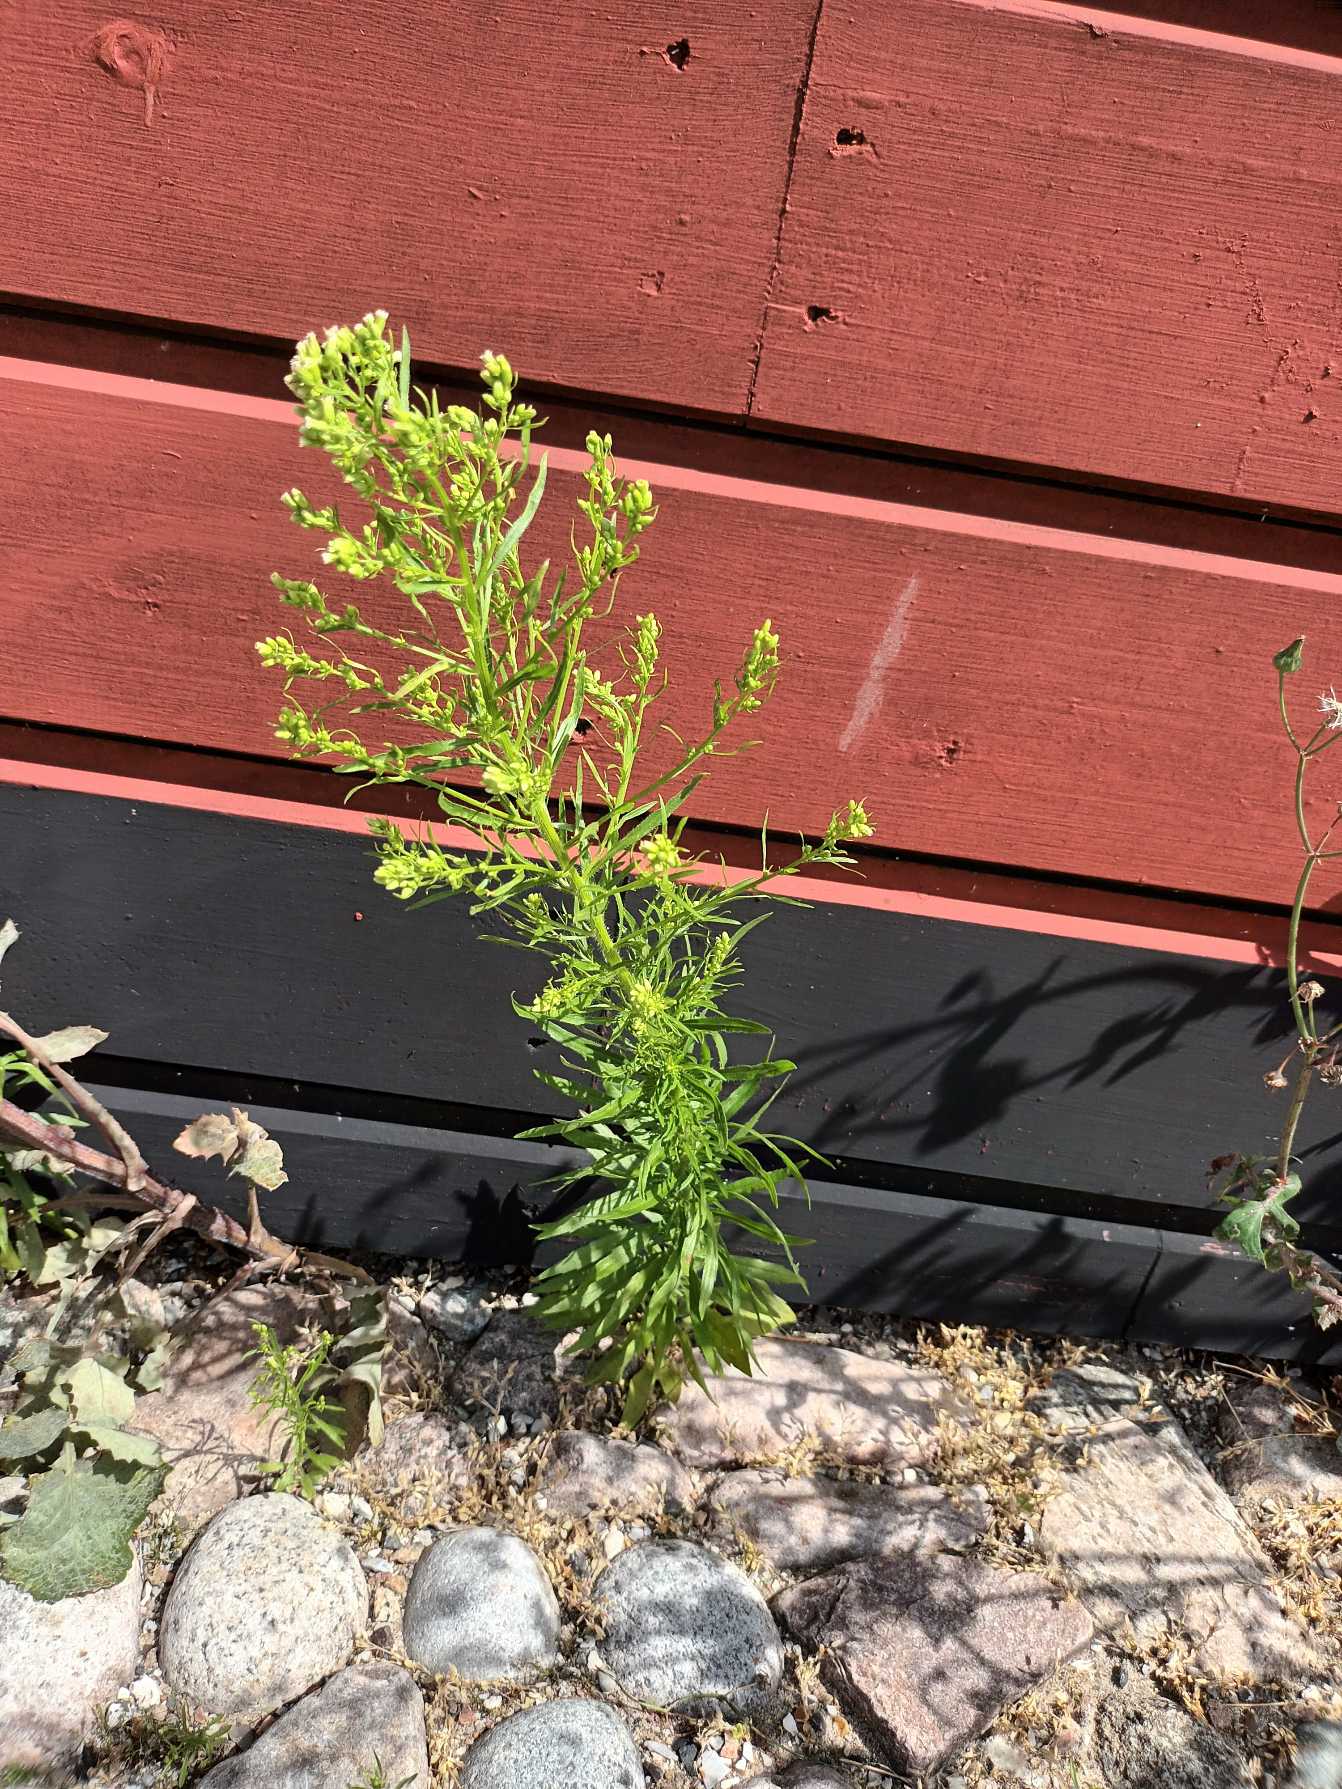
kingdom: Plantae
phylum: Tracheophyta
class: Magnoliopsida
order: Asterales
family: Asteraceae
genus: Erigeron
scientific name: Erigeron canadensis
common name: Kanadisk bakkestjerne
